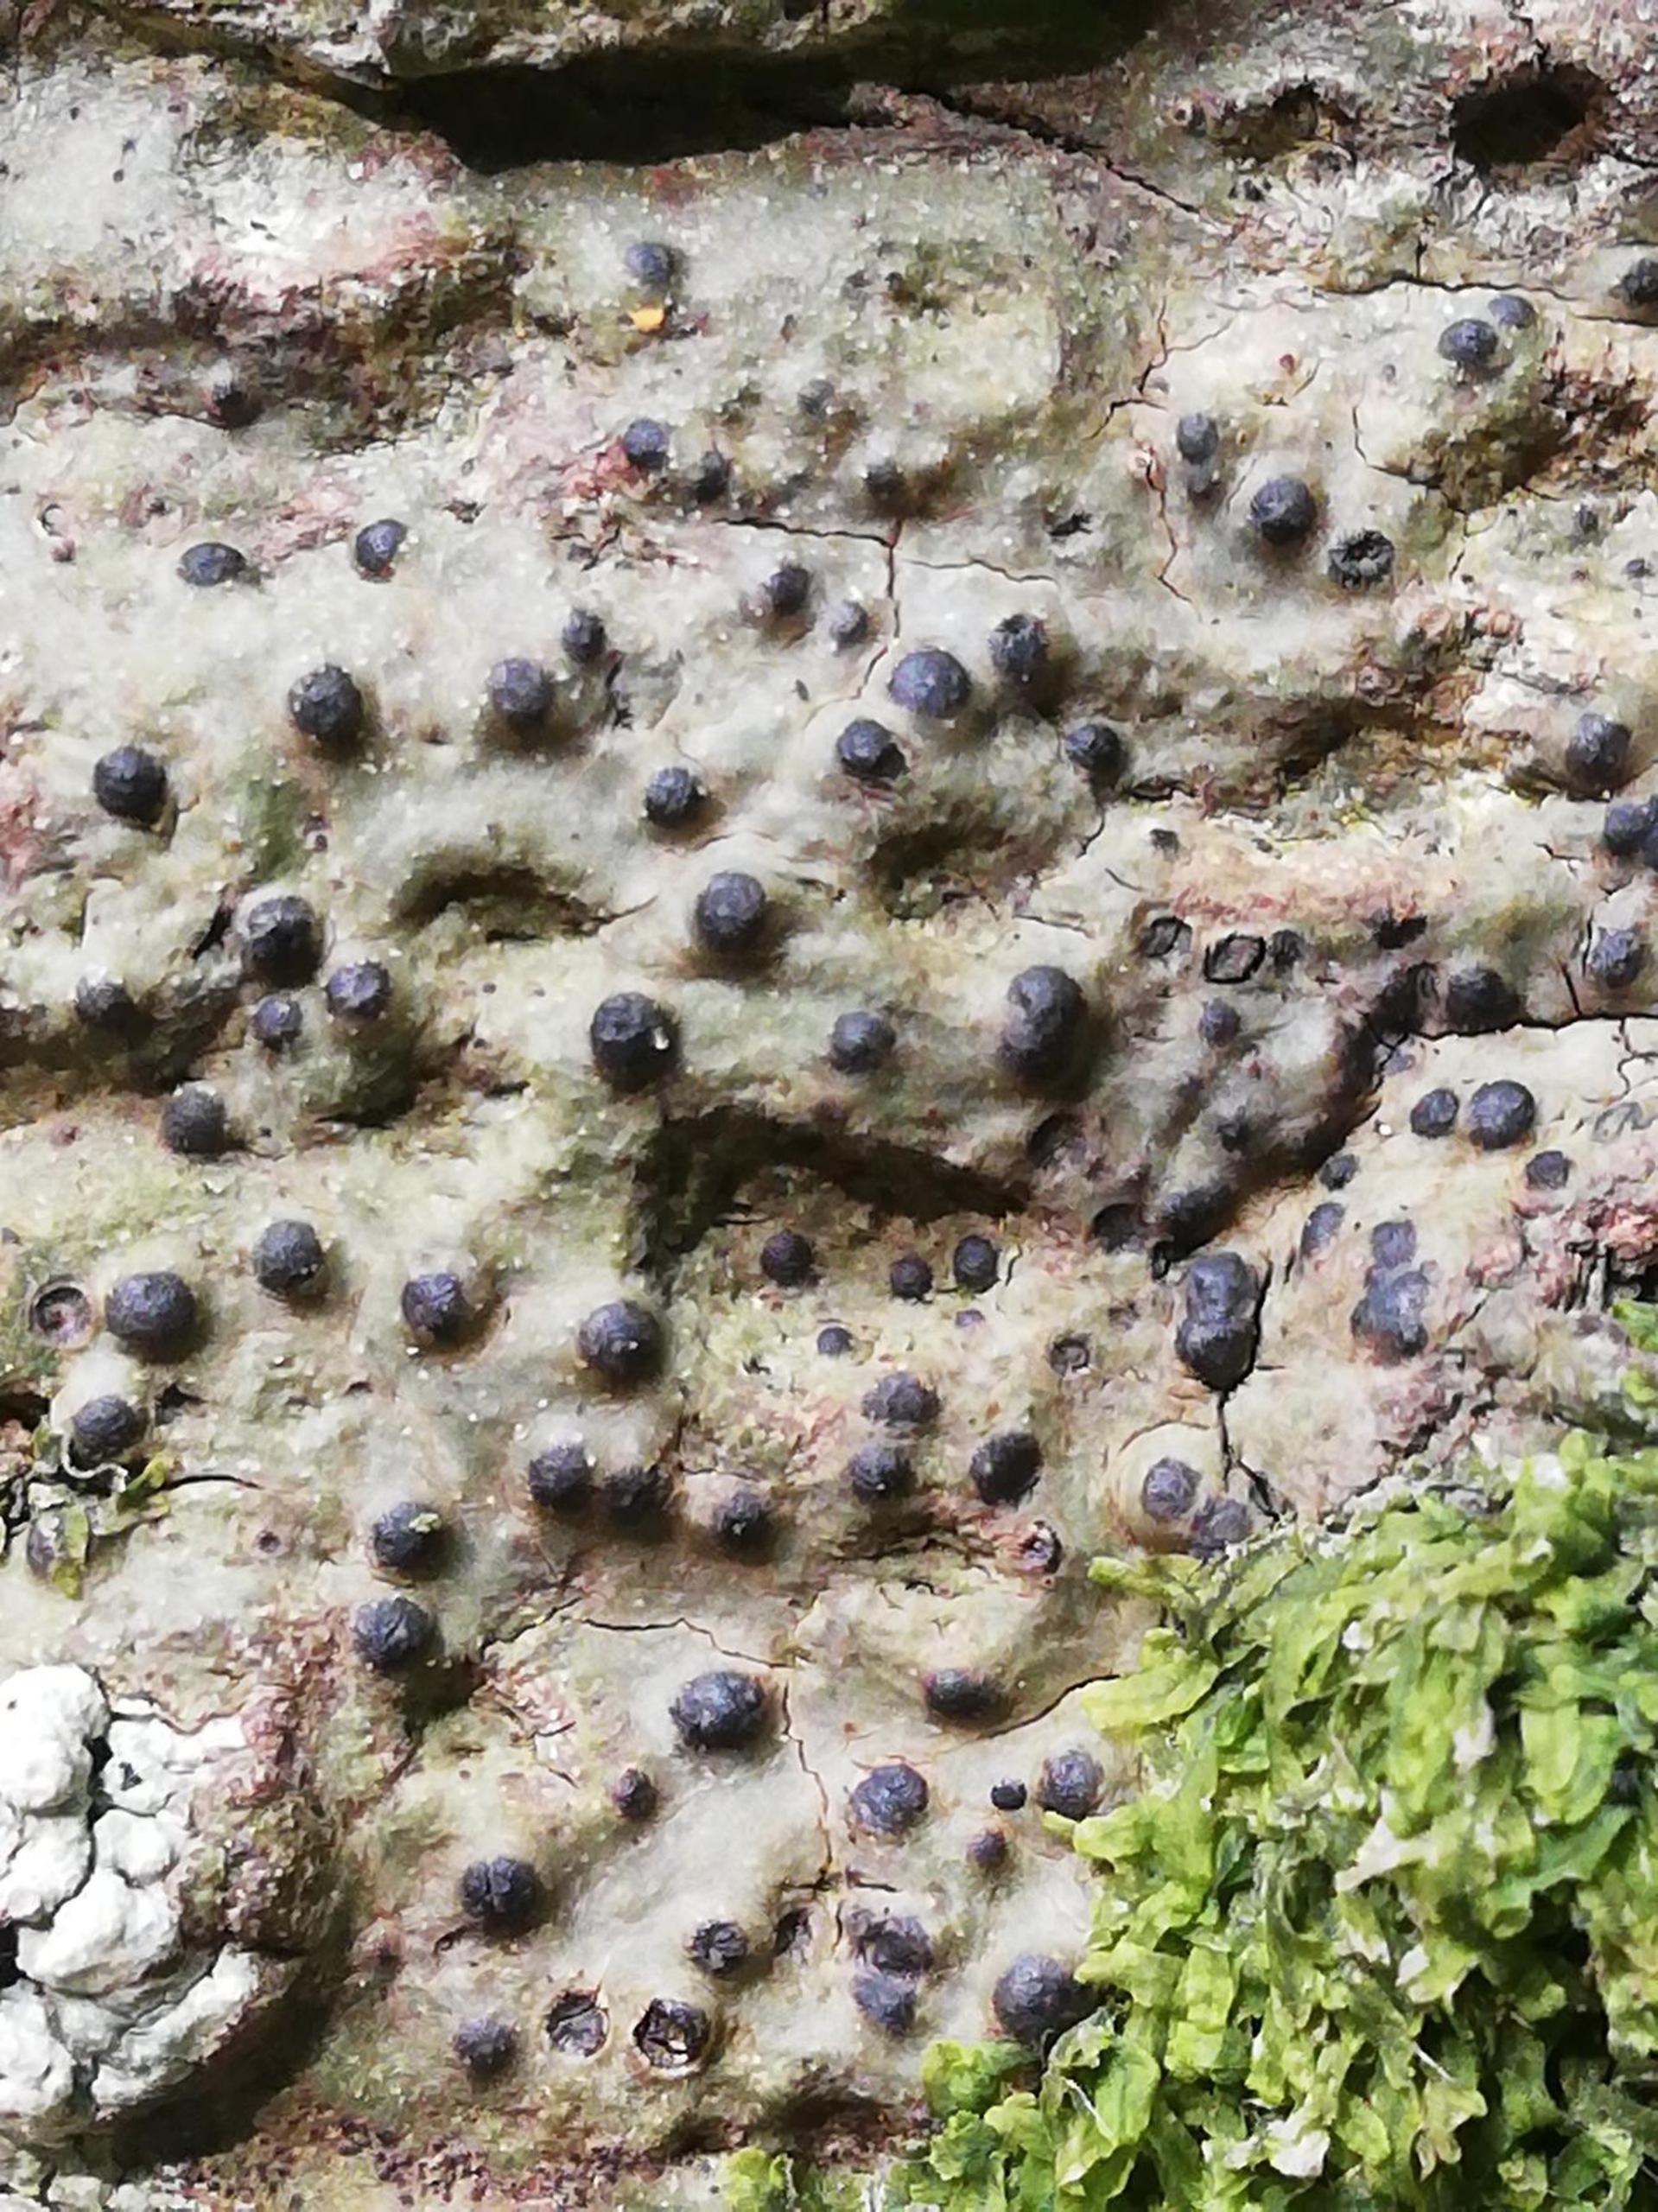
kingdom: Fungi
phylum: Ascomycota
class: Eurotiomycetes
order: Pyrenulales
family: Pyrenulaceae
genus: Pyrenula
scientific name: Pyrenula nitida
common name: Glinsende kernelav
